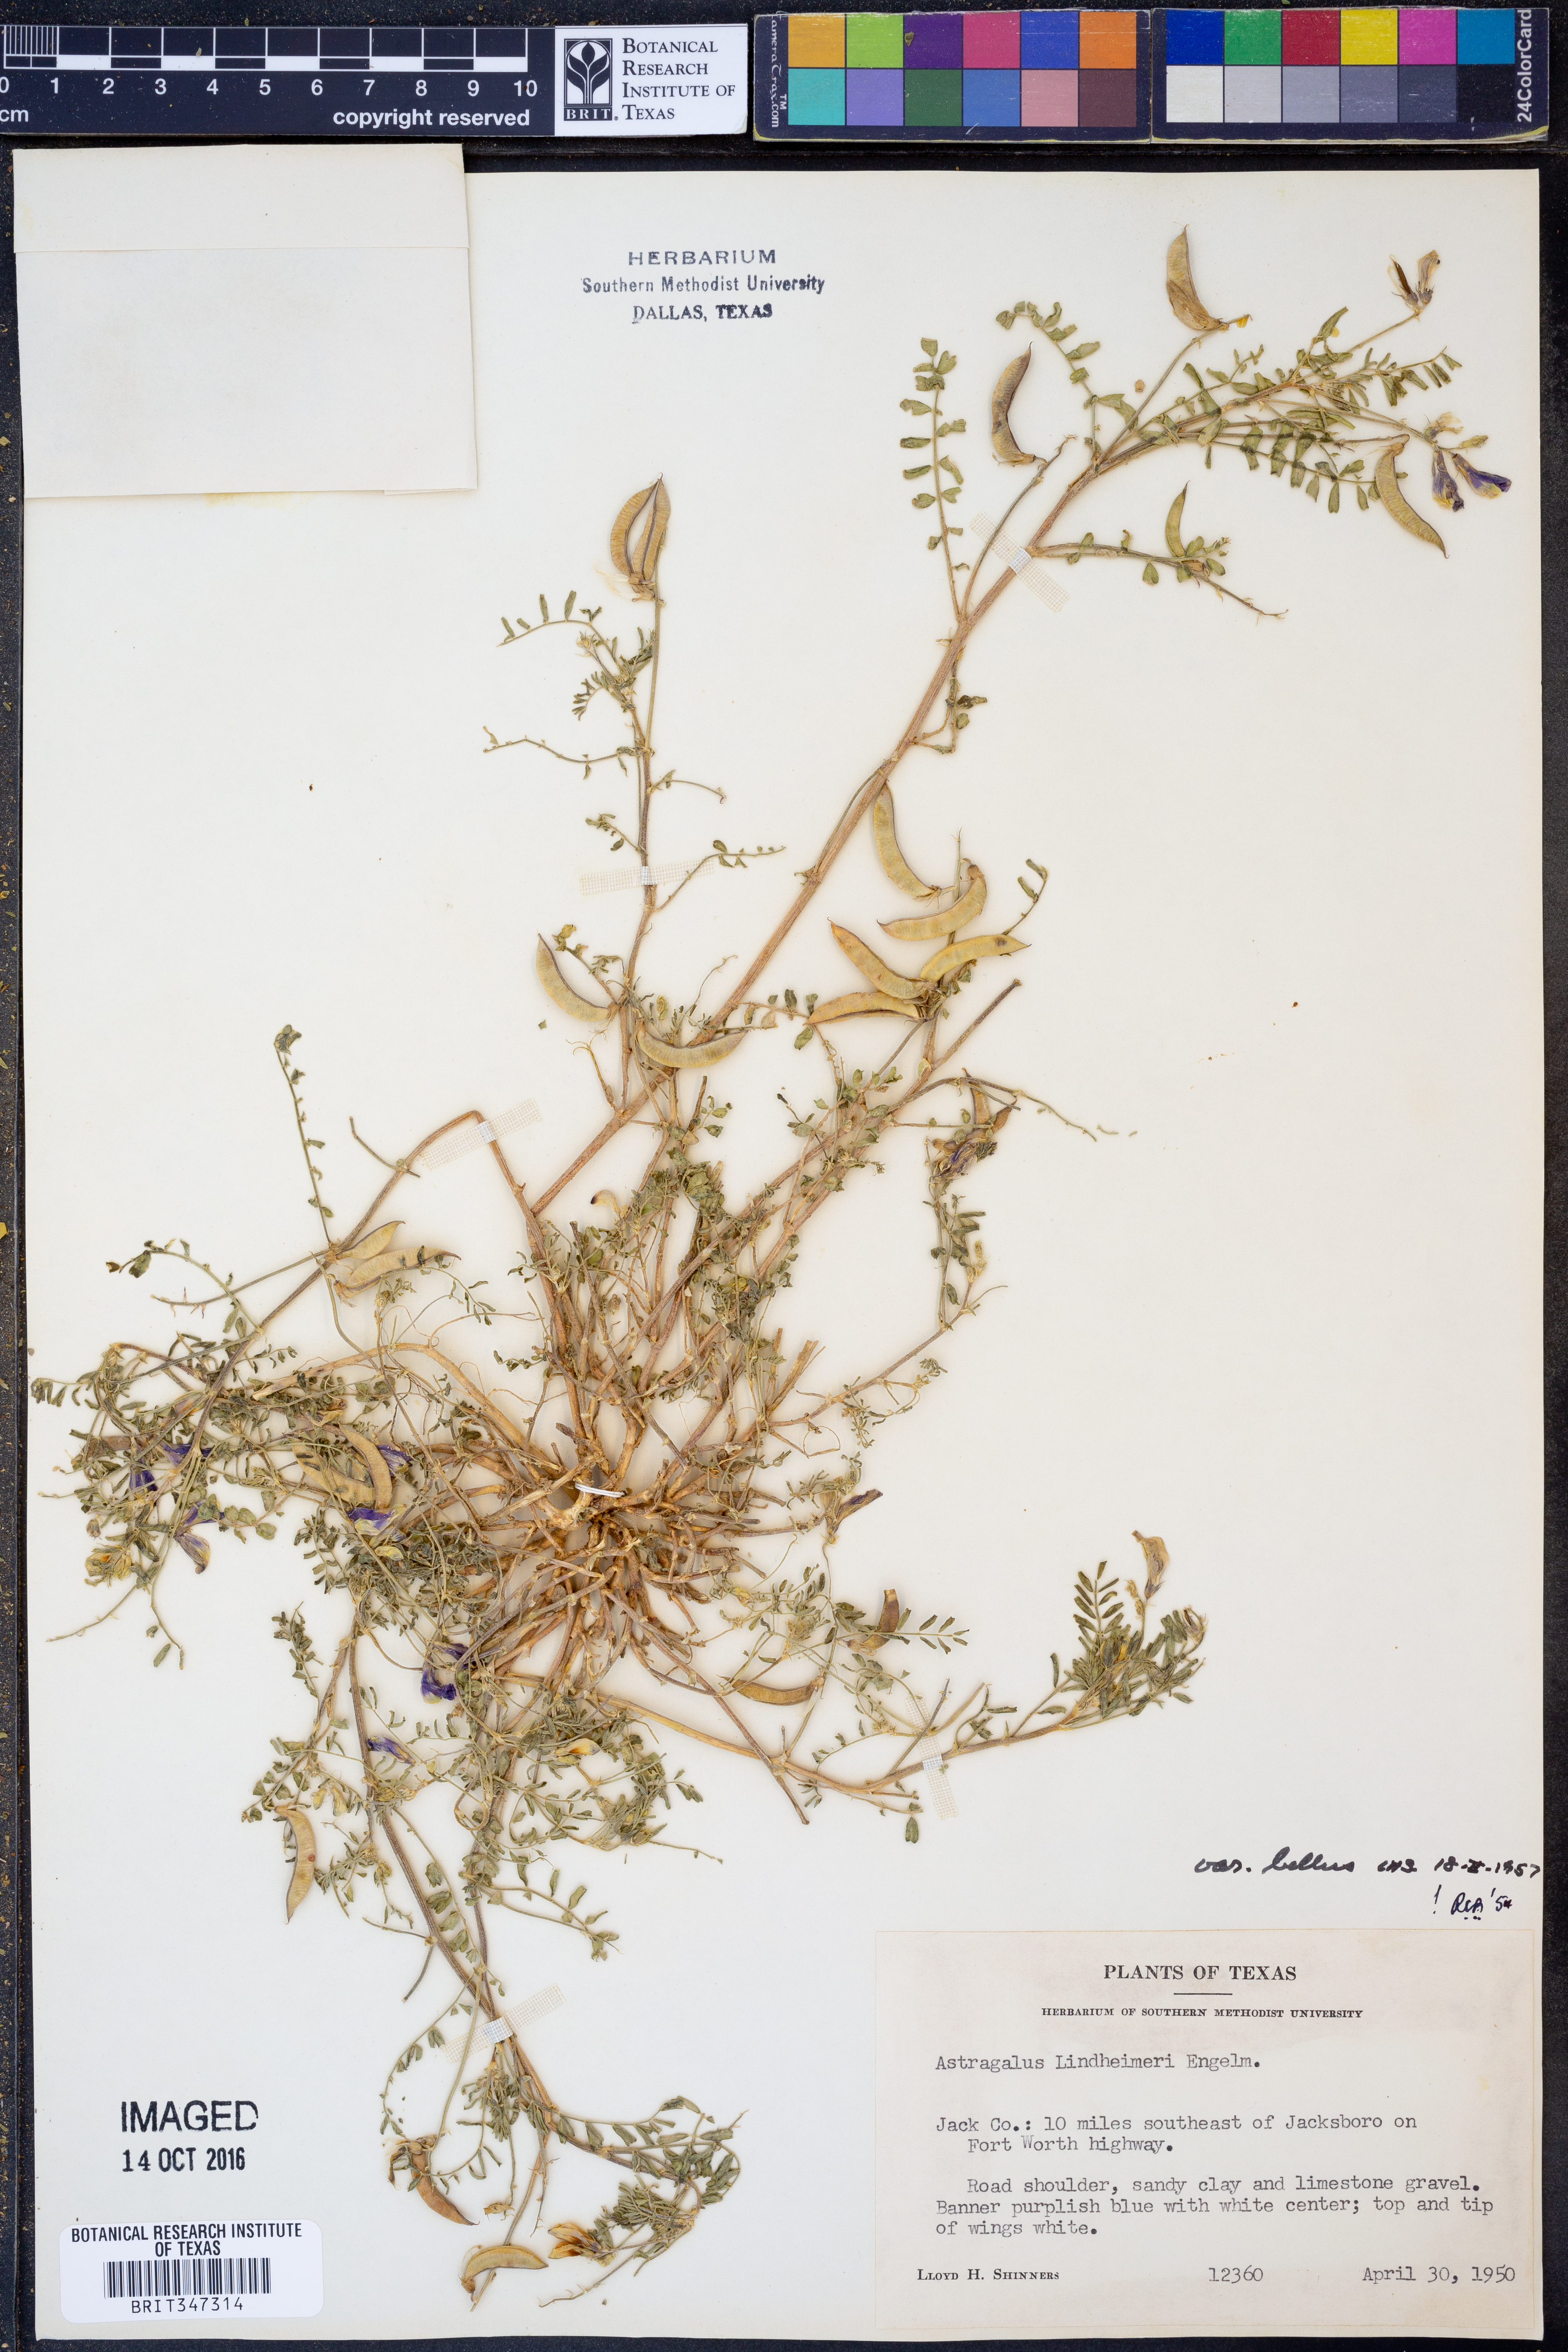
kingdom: Plantae
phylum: Tracheophyta
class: Magnoliopsida
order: Fabales
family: Fabaceae
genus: Astragalus
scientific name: Astragalus lindheimeri
